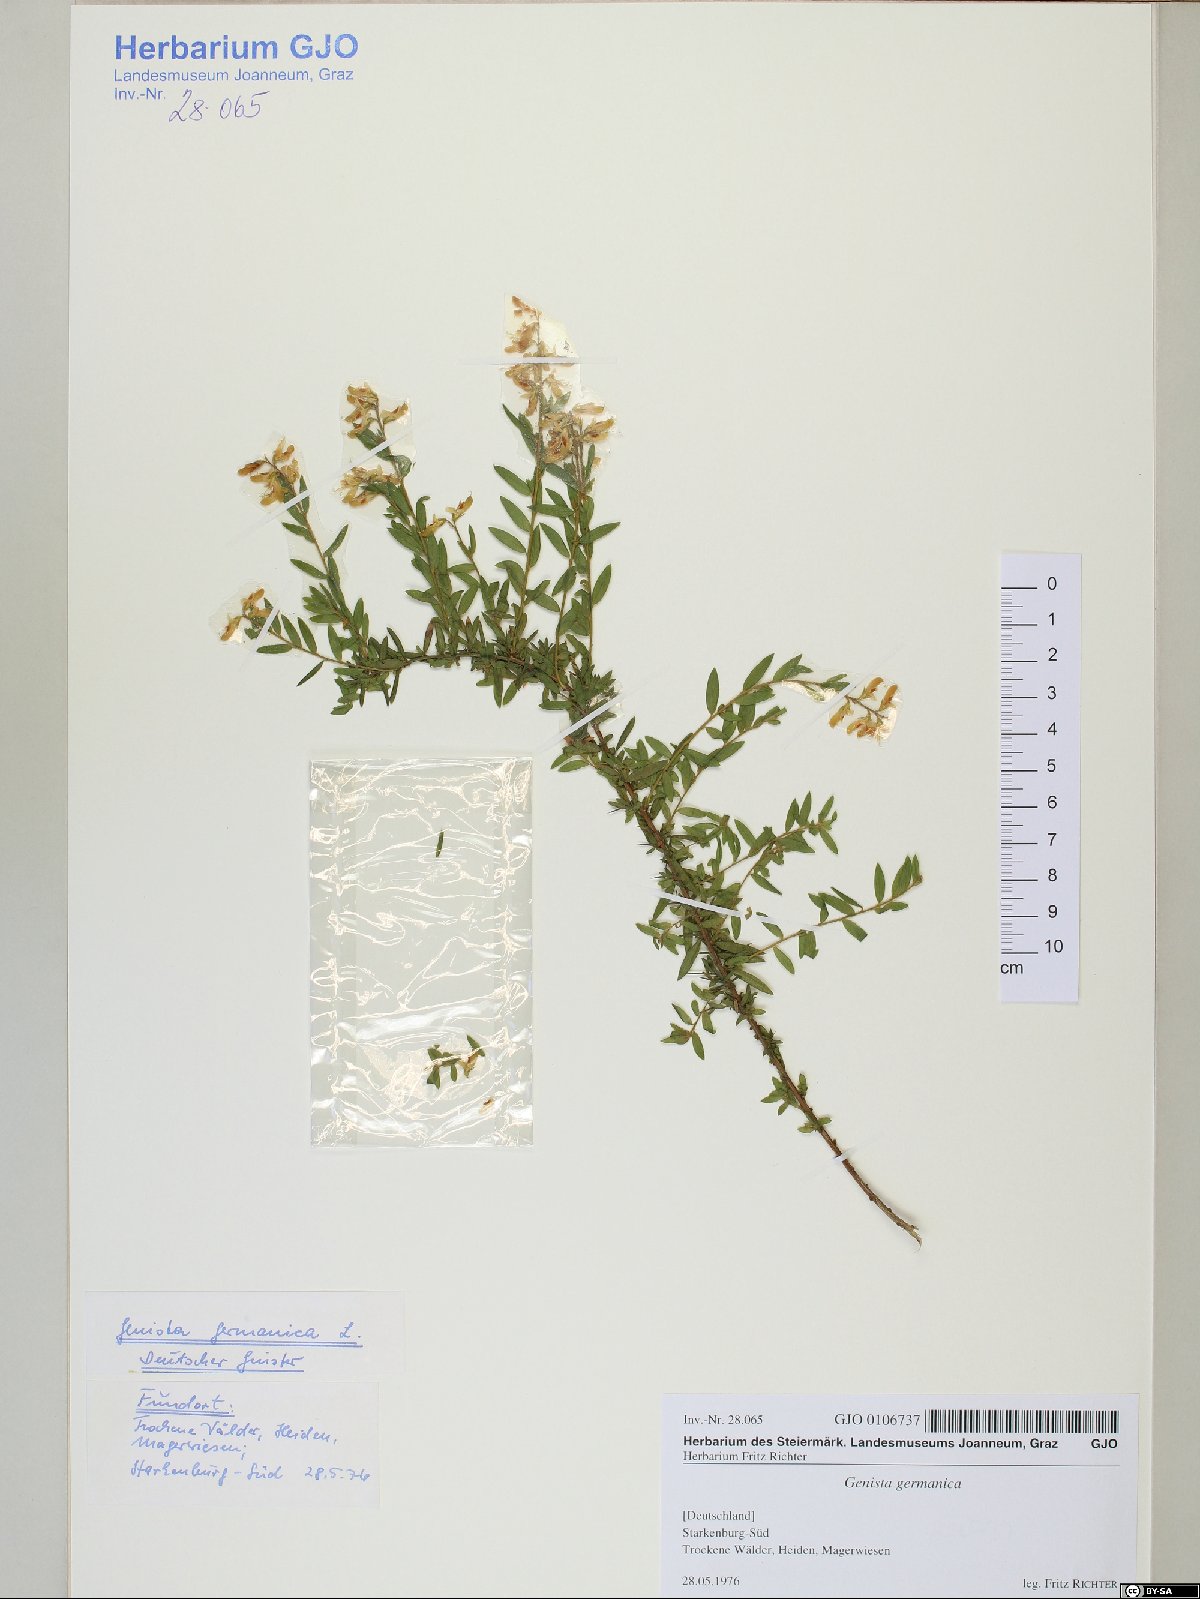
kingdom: Plantae
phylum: Tracheophyta
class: Magnoliopsida
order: Fabales
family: Fabaceae
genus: Genista
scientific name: Genista germanica
